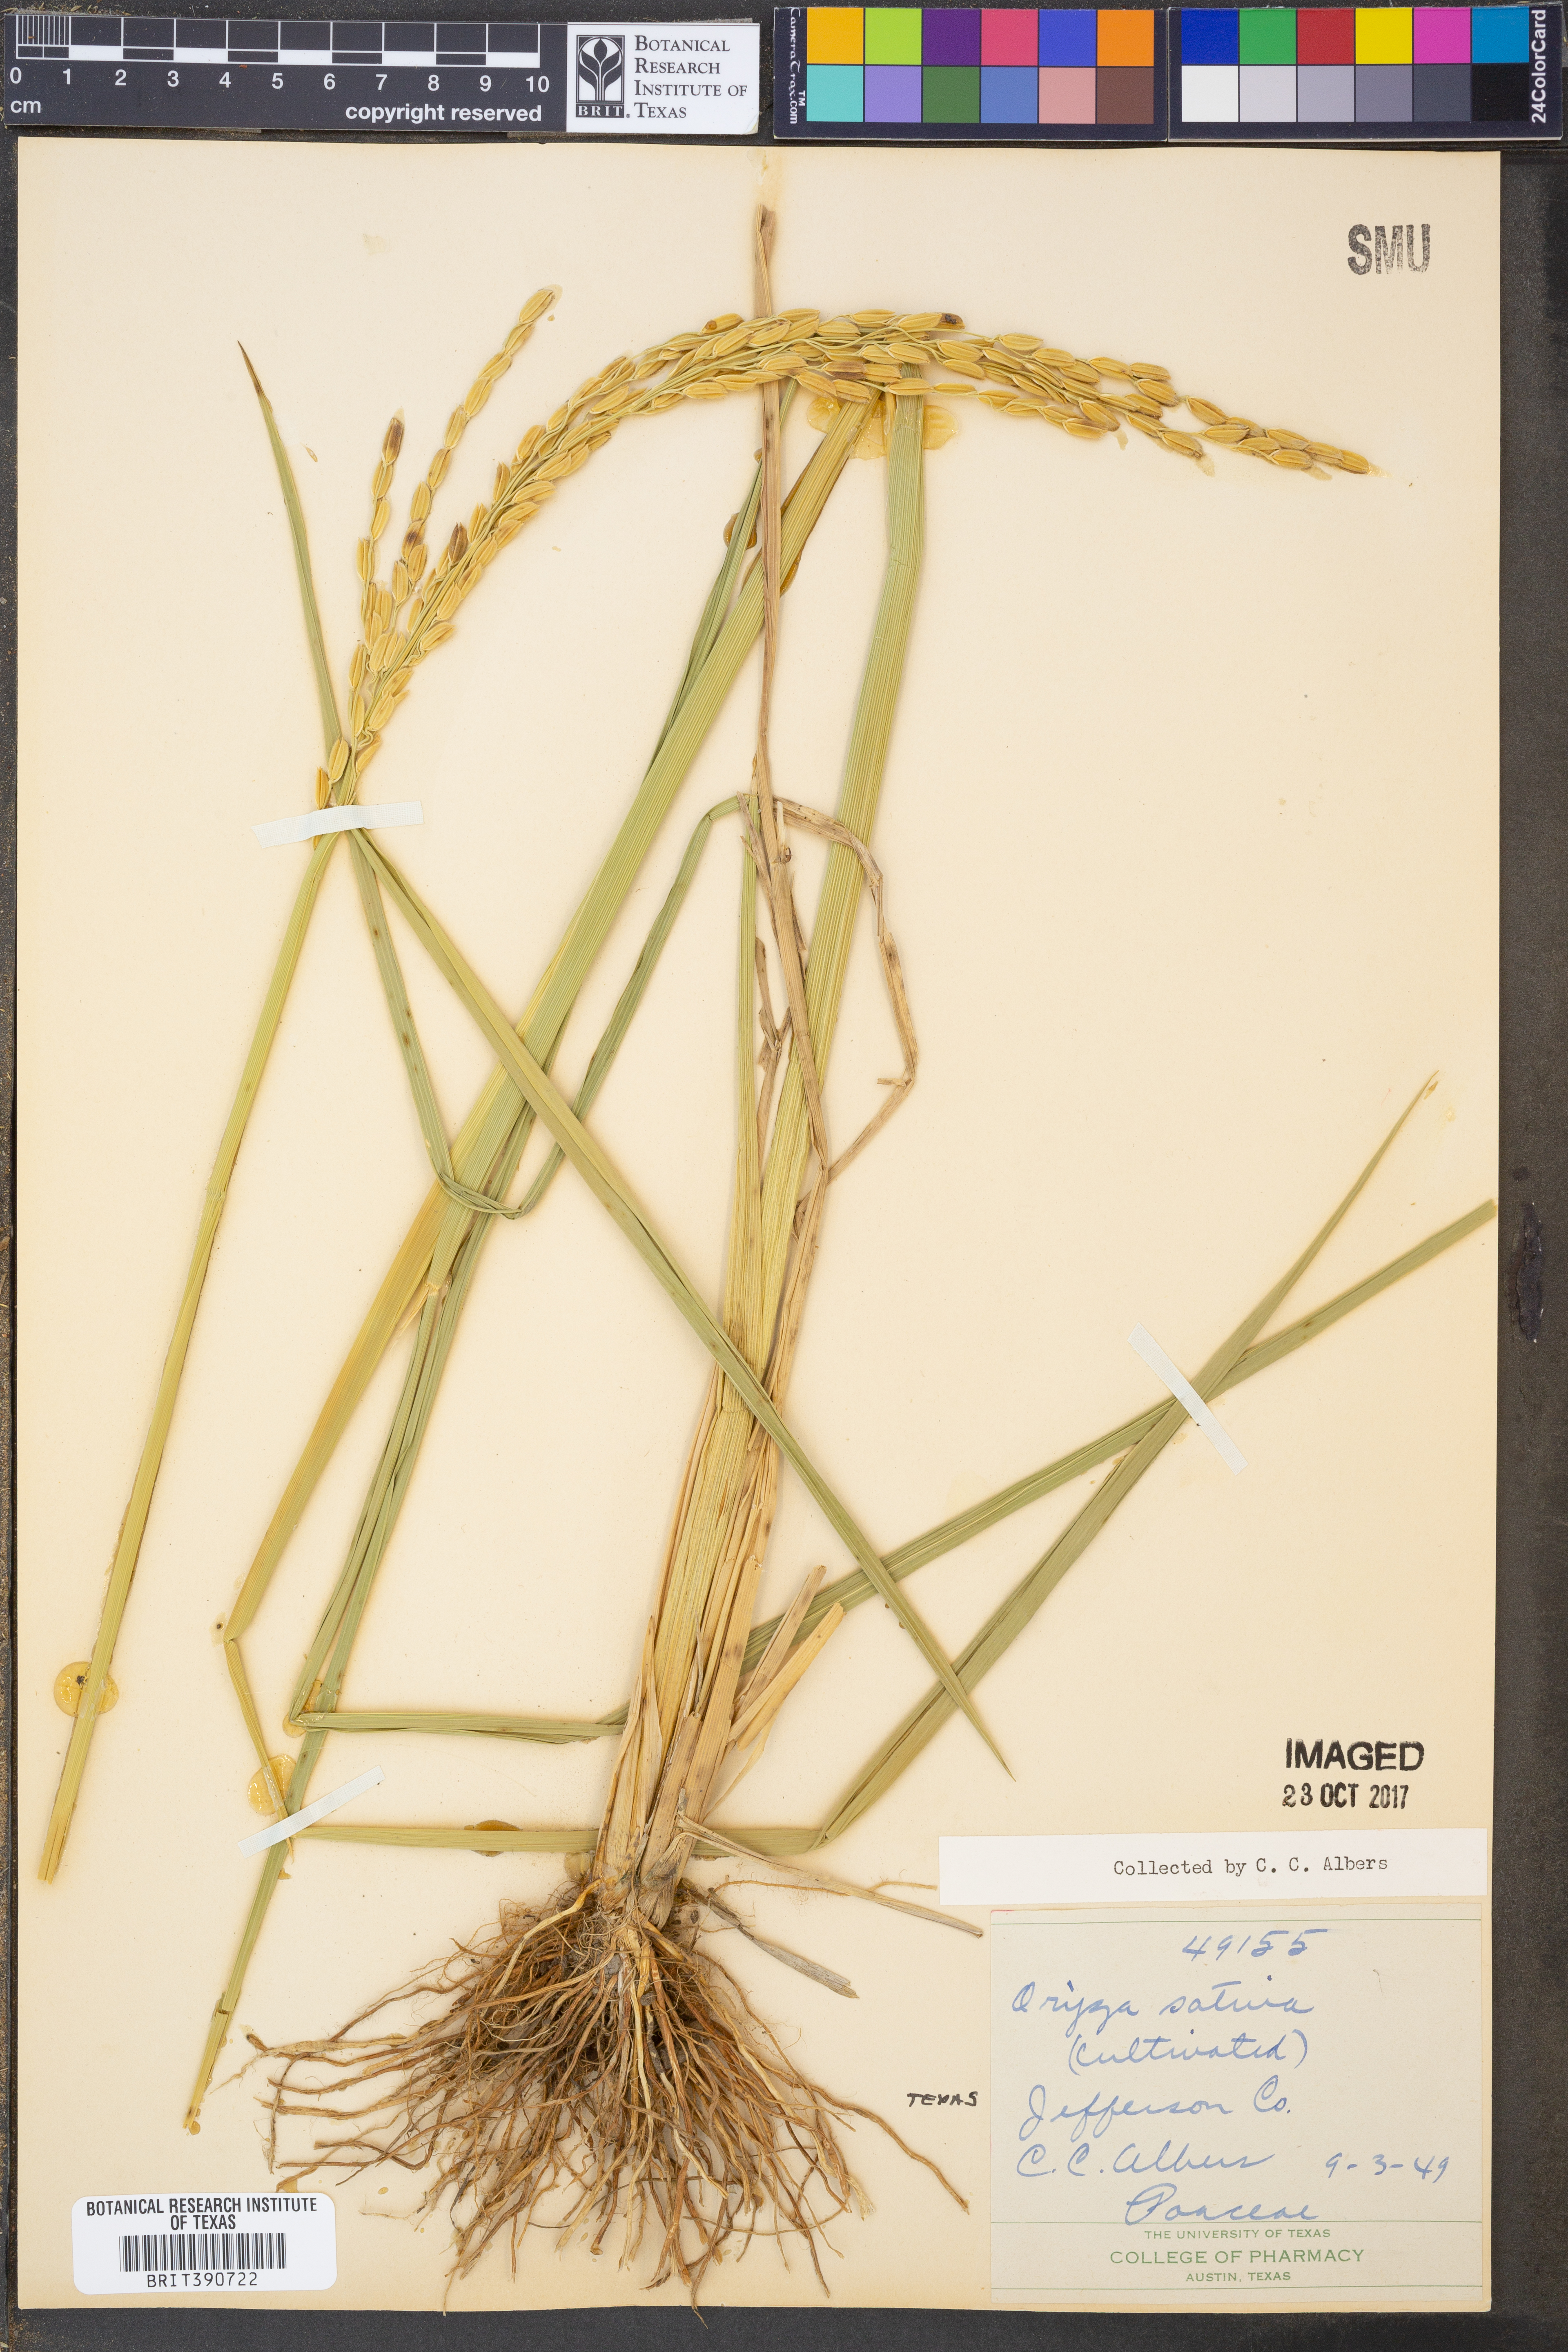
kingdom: Plantae
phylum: Tracheophyta
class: Liliopsida
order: Poales
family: Poaceae
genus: Oryza
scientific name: Oryza sativa
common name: Rice
